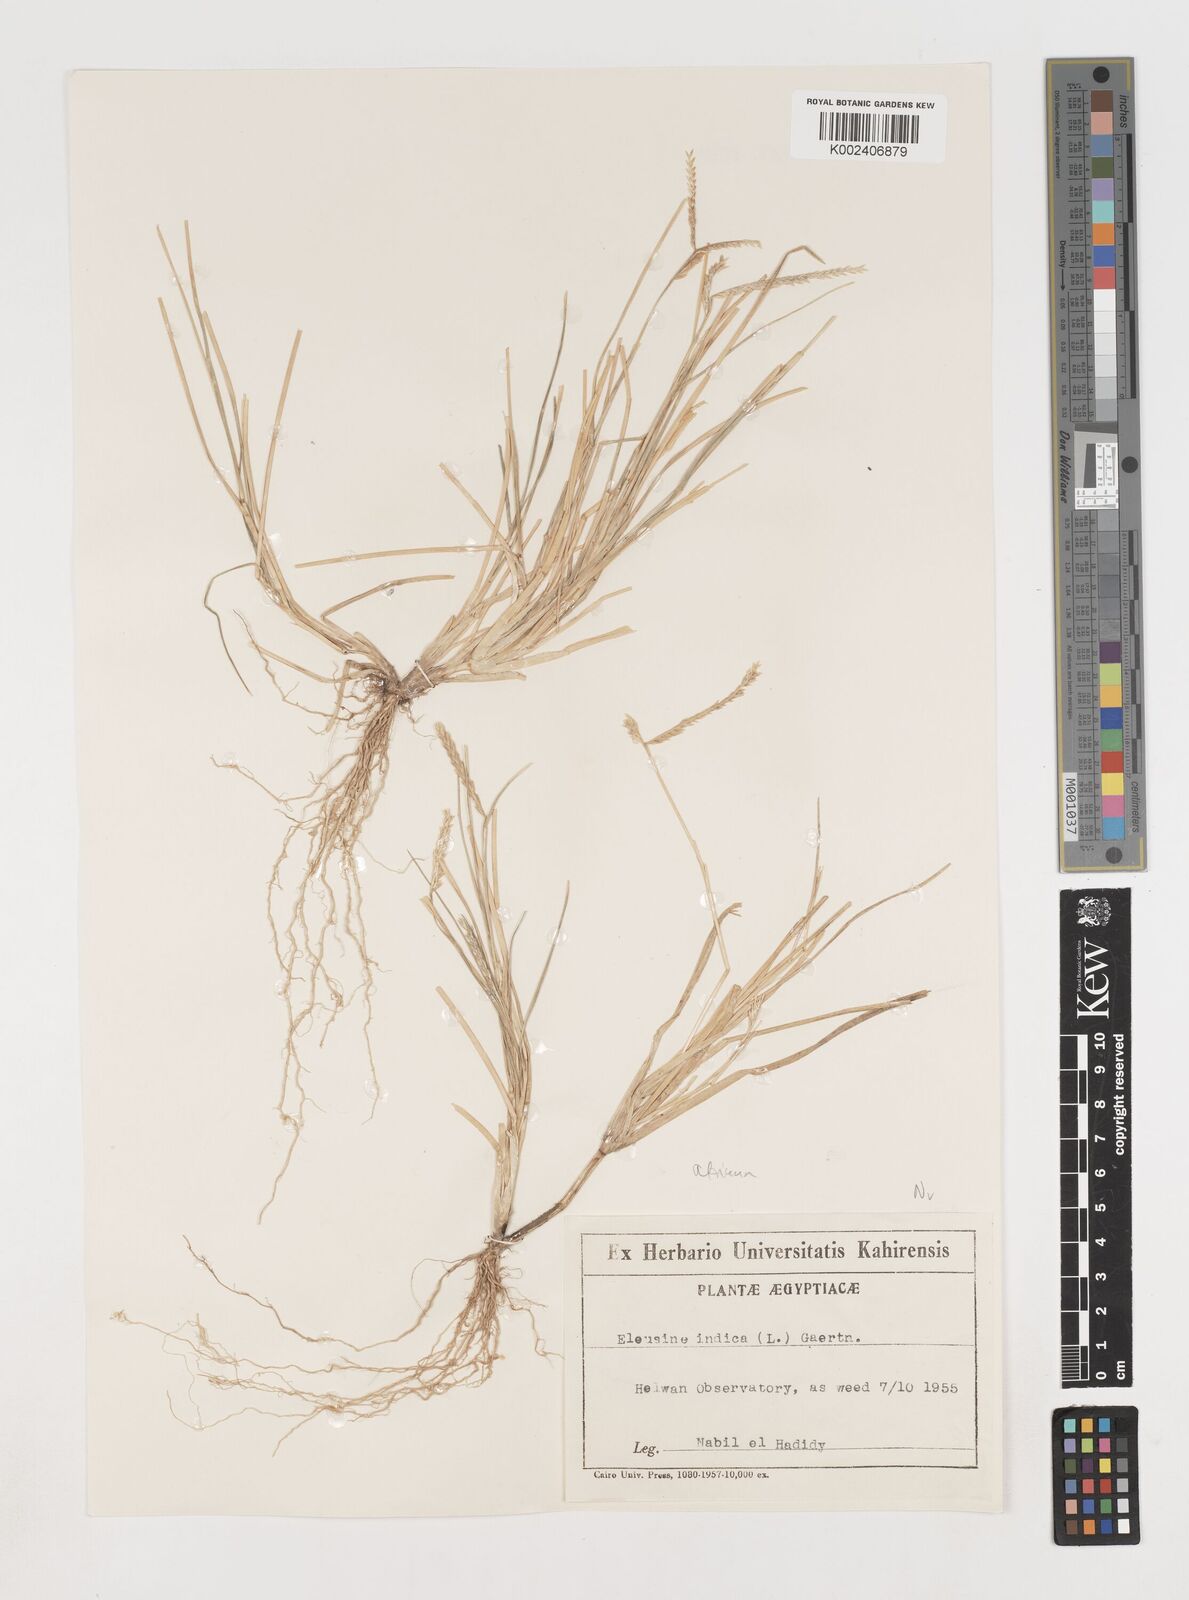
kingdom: Plantae
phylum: Tracheophyta
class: Liliopsida
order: Poales
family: Poaceae
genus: Eleusine
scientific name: Eleusine africana
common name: Wild african finger millet
